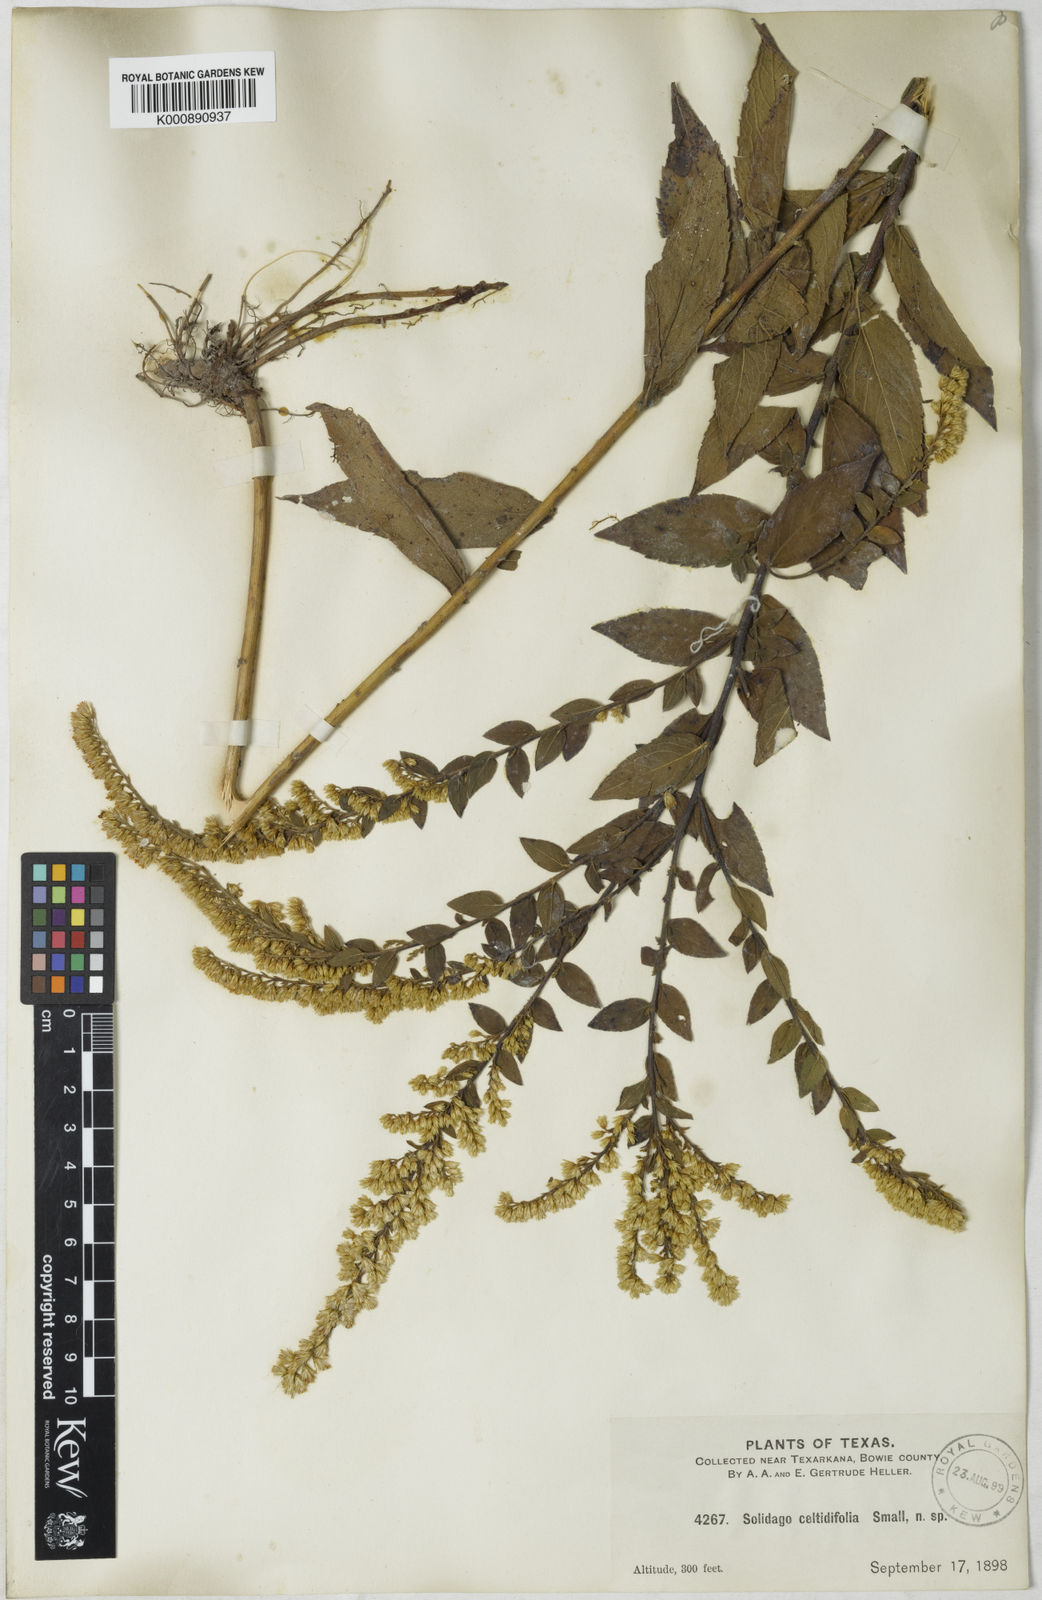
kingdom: Plantae
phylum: Tracheophyta
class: Magnoliopsida
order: Asterales
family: Asteraceae
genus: Solidago
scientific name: Solidago rugosa
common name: Rough-stemmed goldenrod
